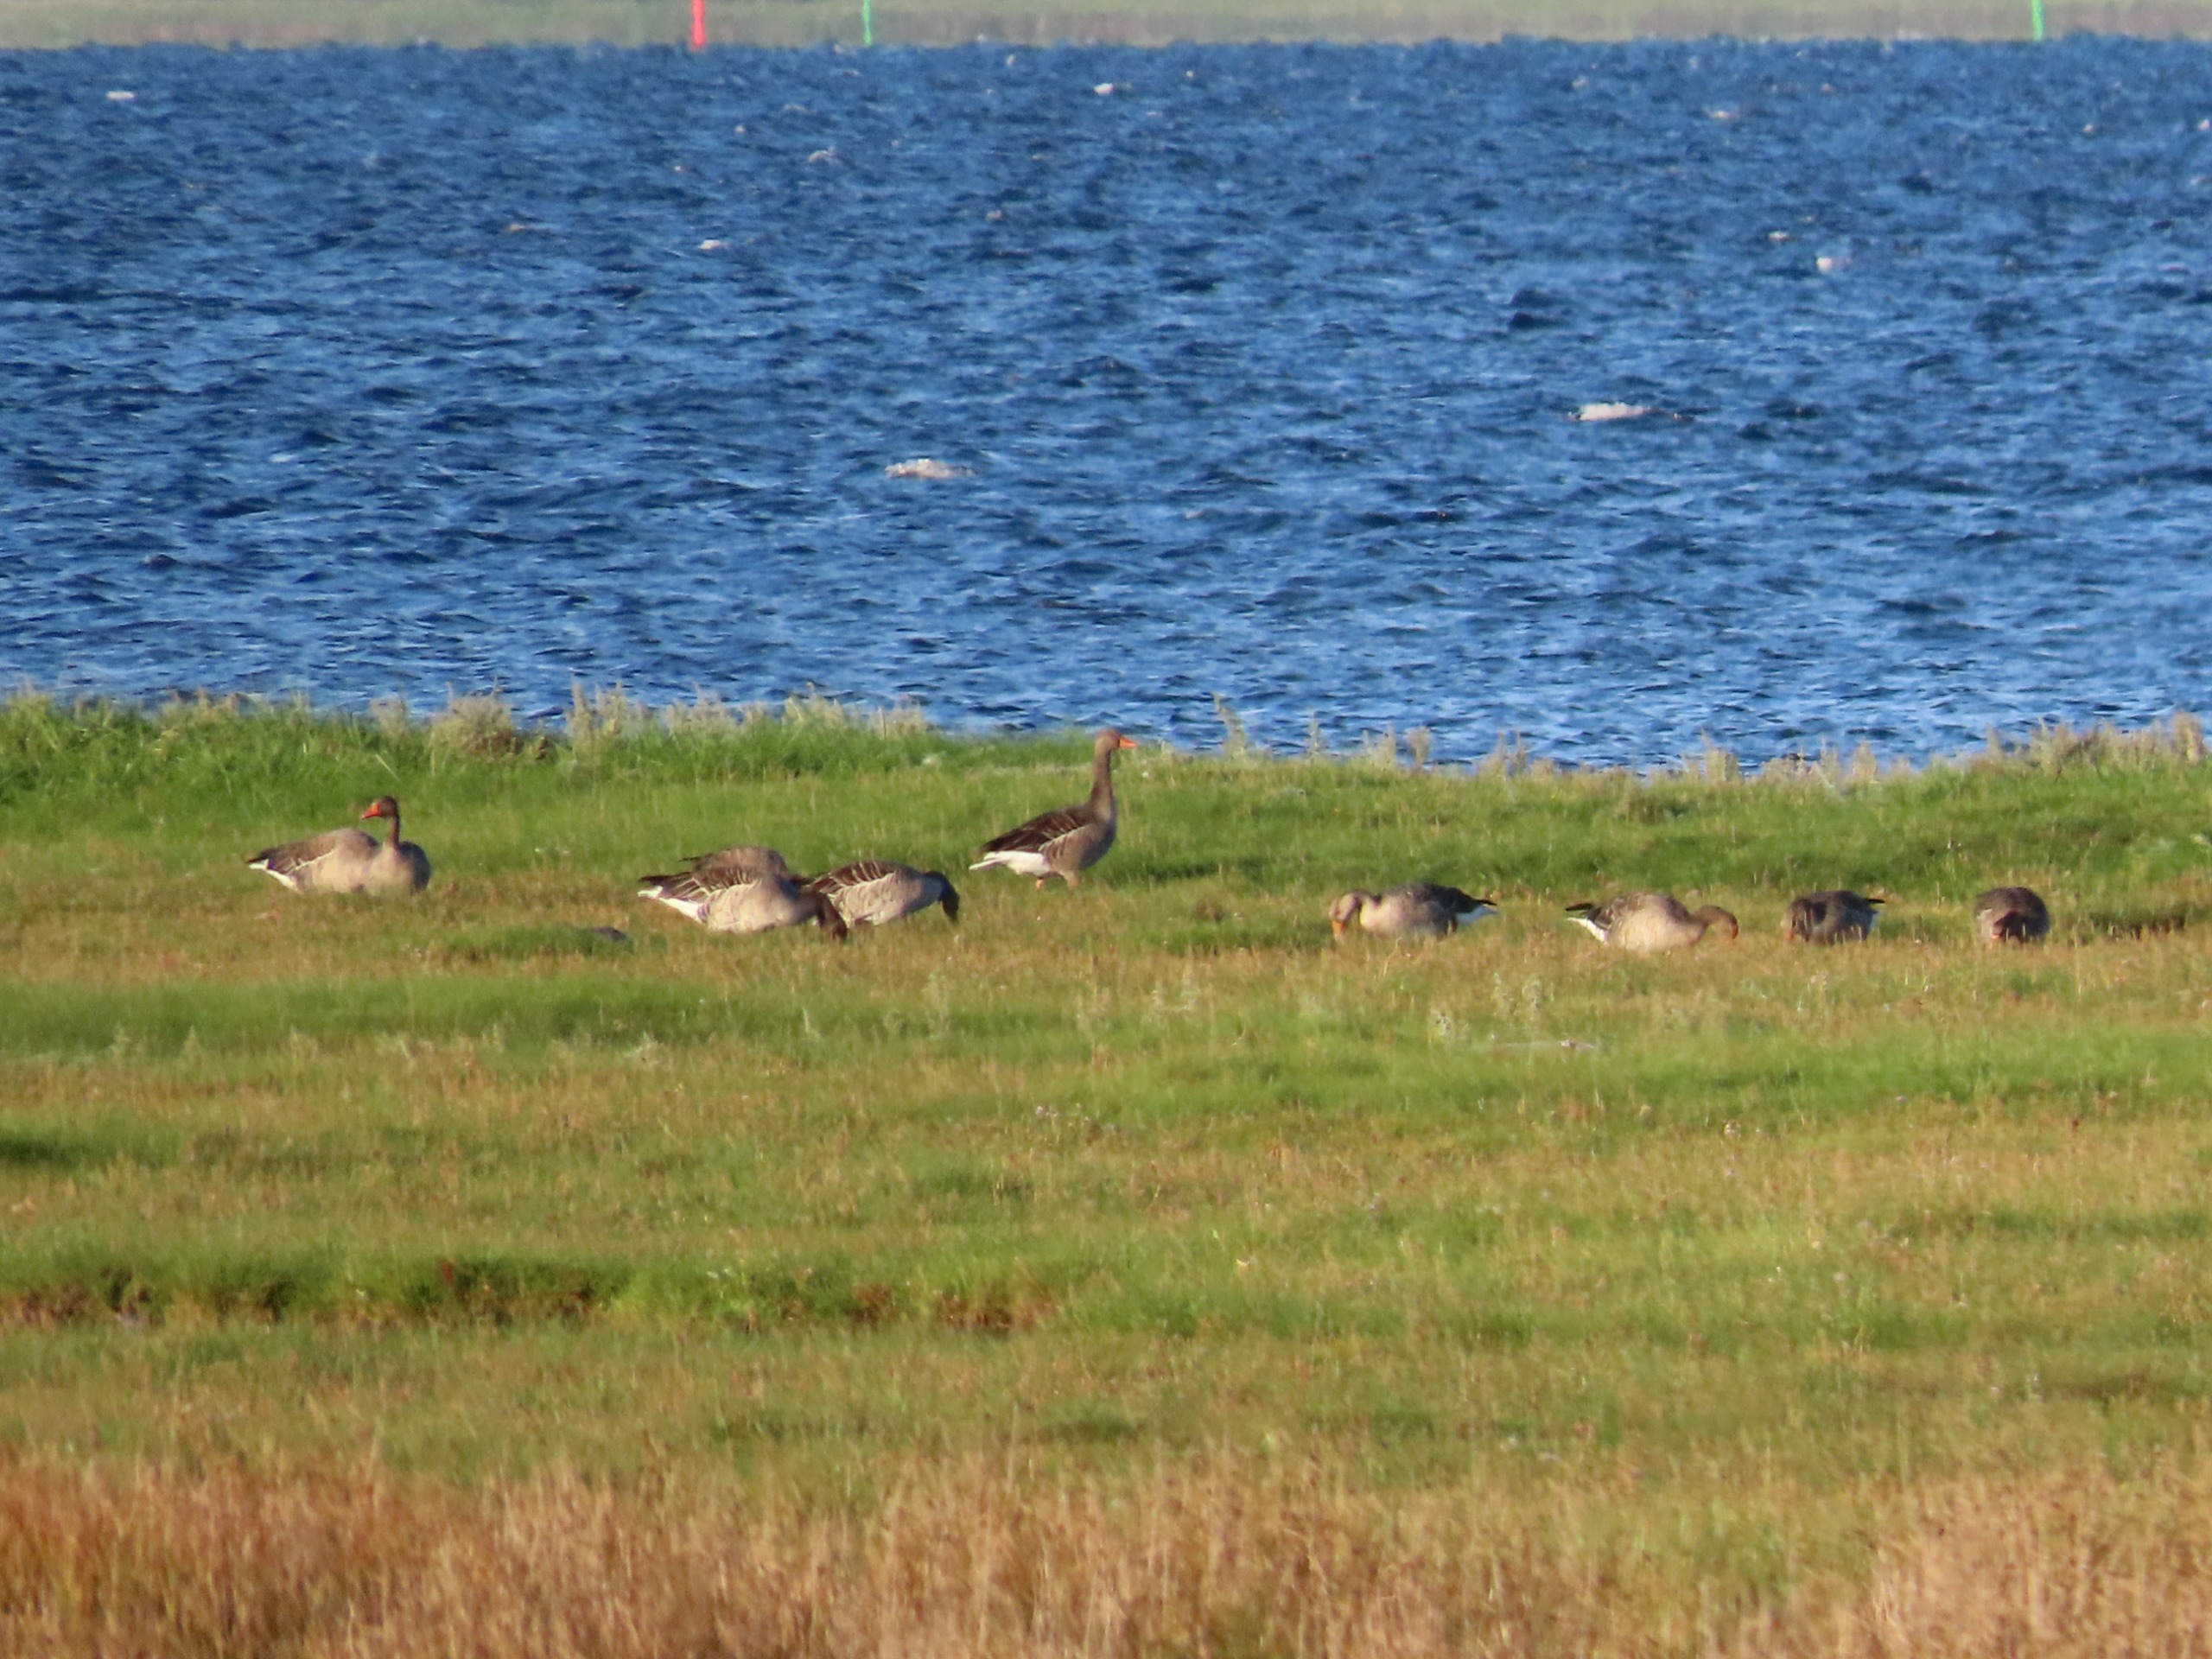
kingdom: Animalia
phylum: Chordata
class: Aves
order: Anseriformes
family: Anatidae
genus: Anser
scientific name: Anser anser
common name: Grågås
